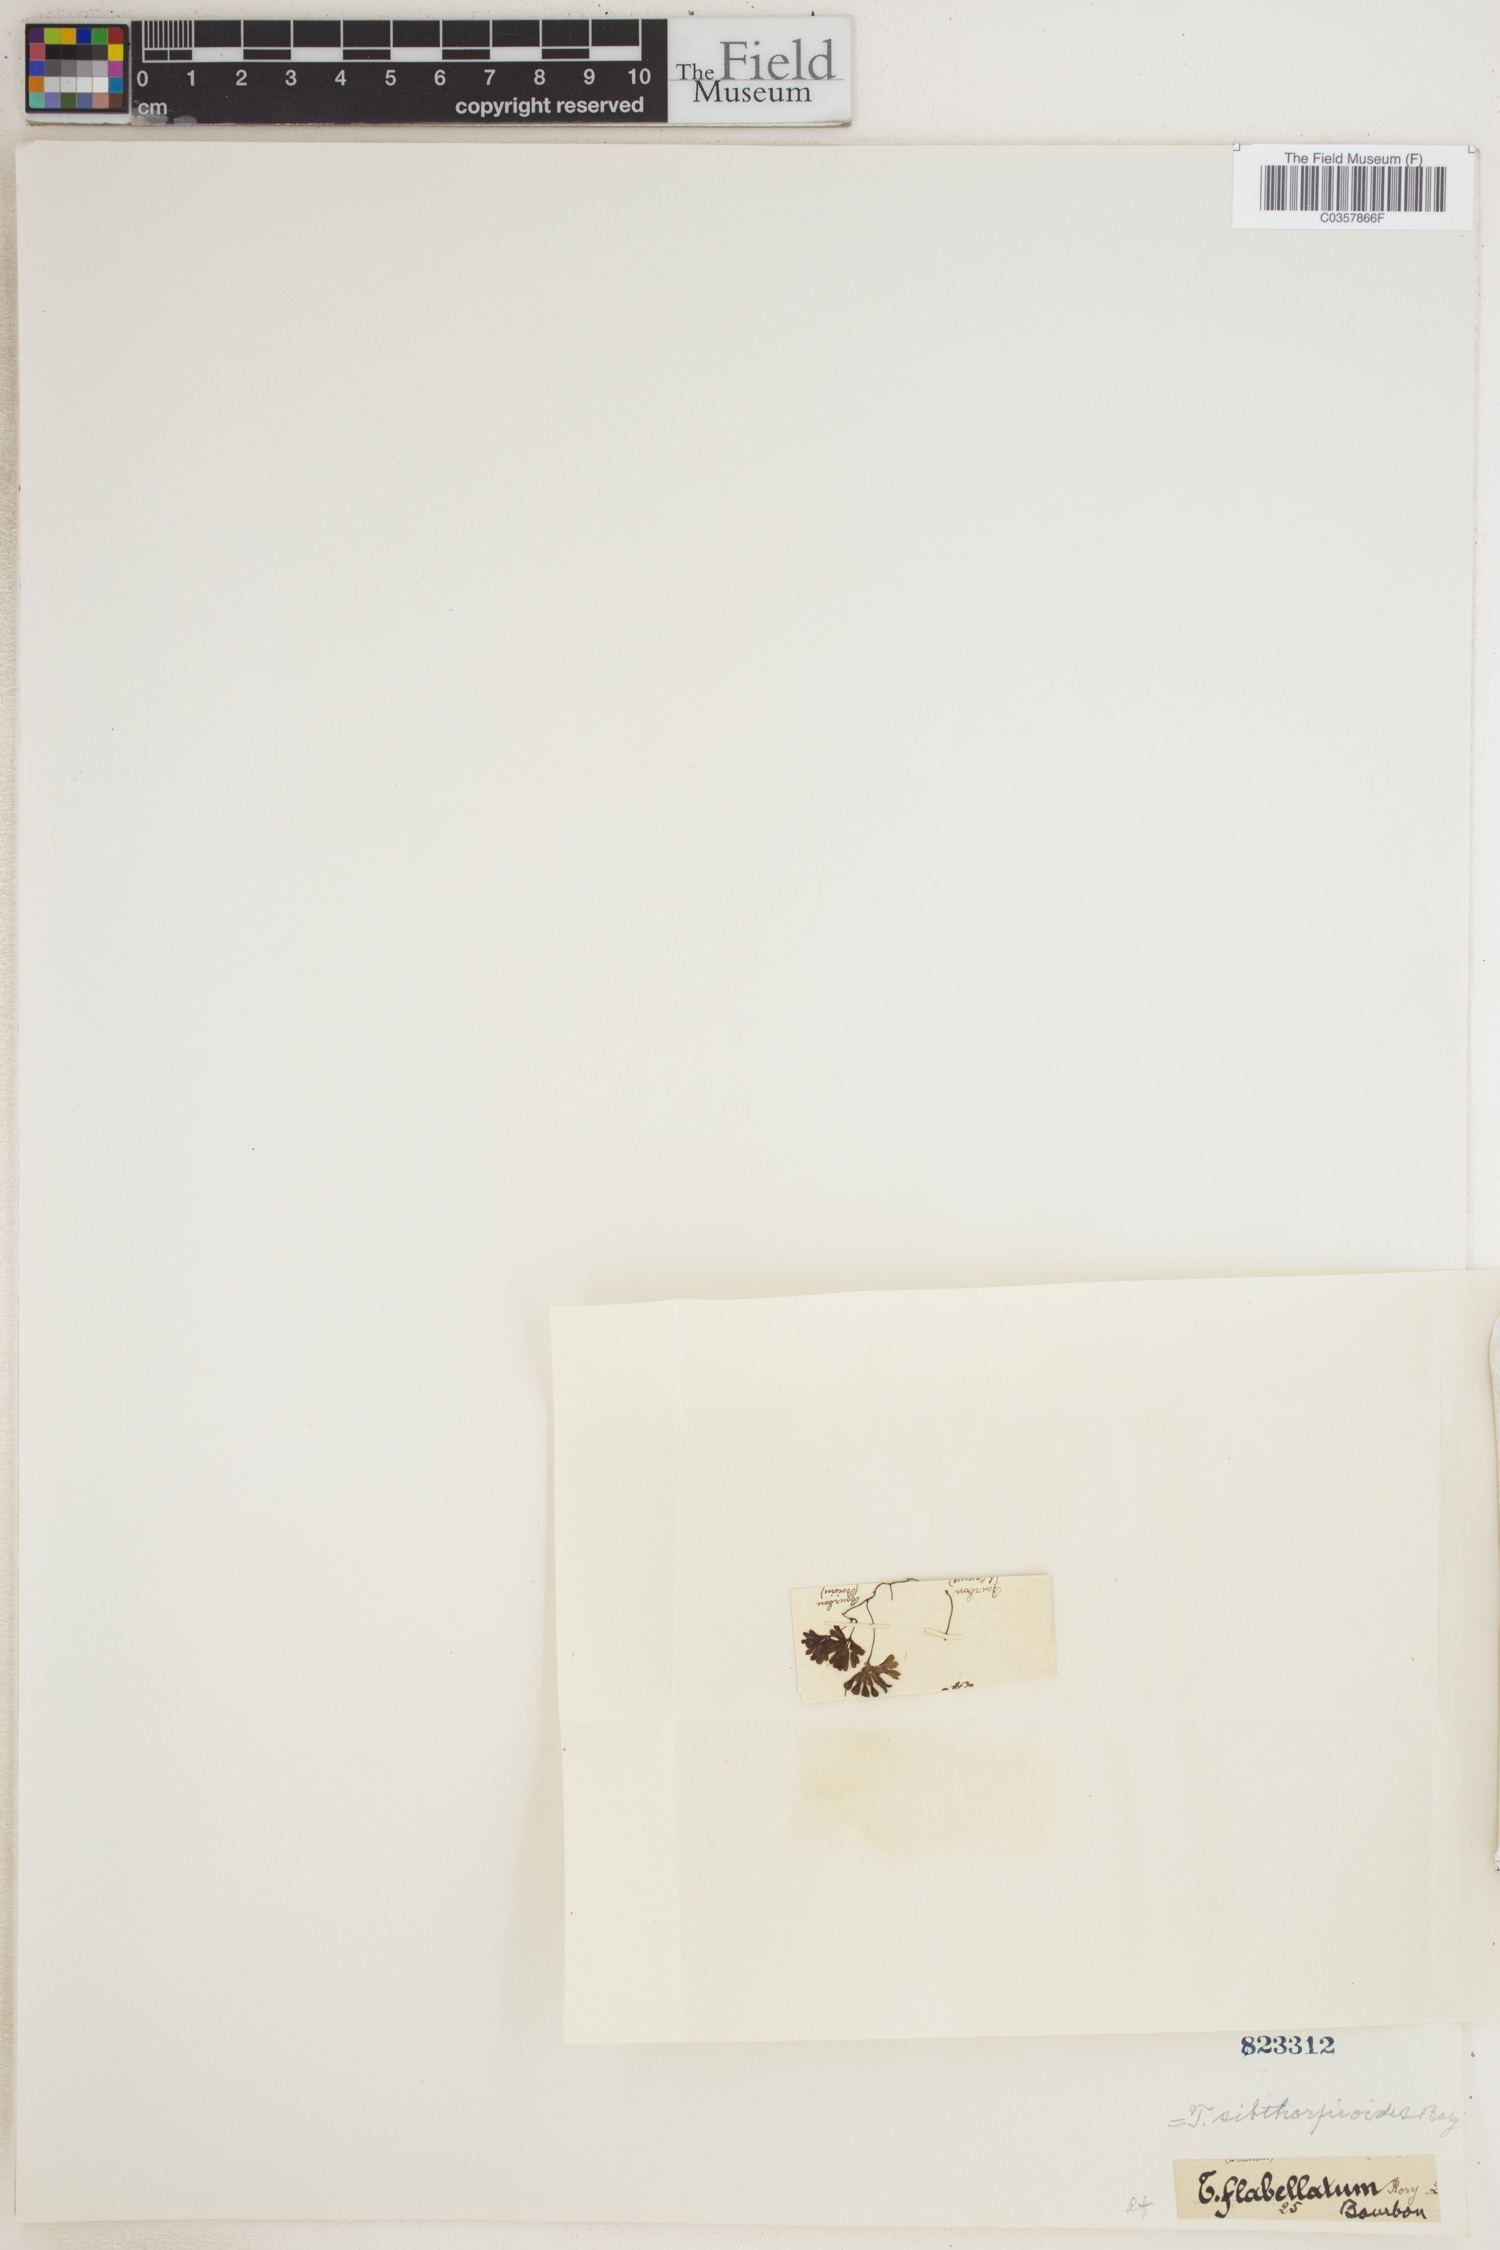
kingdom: Plantae
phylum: Tracheophyta
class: Polypodiopsida
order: Hymenophyllales
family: Hymenophyllaceae
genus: Hymenophyllum
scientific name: Hymenophyllum sibthorpioides
